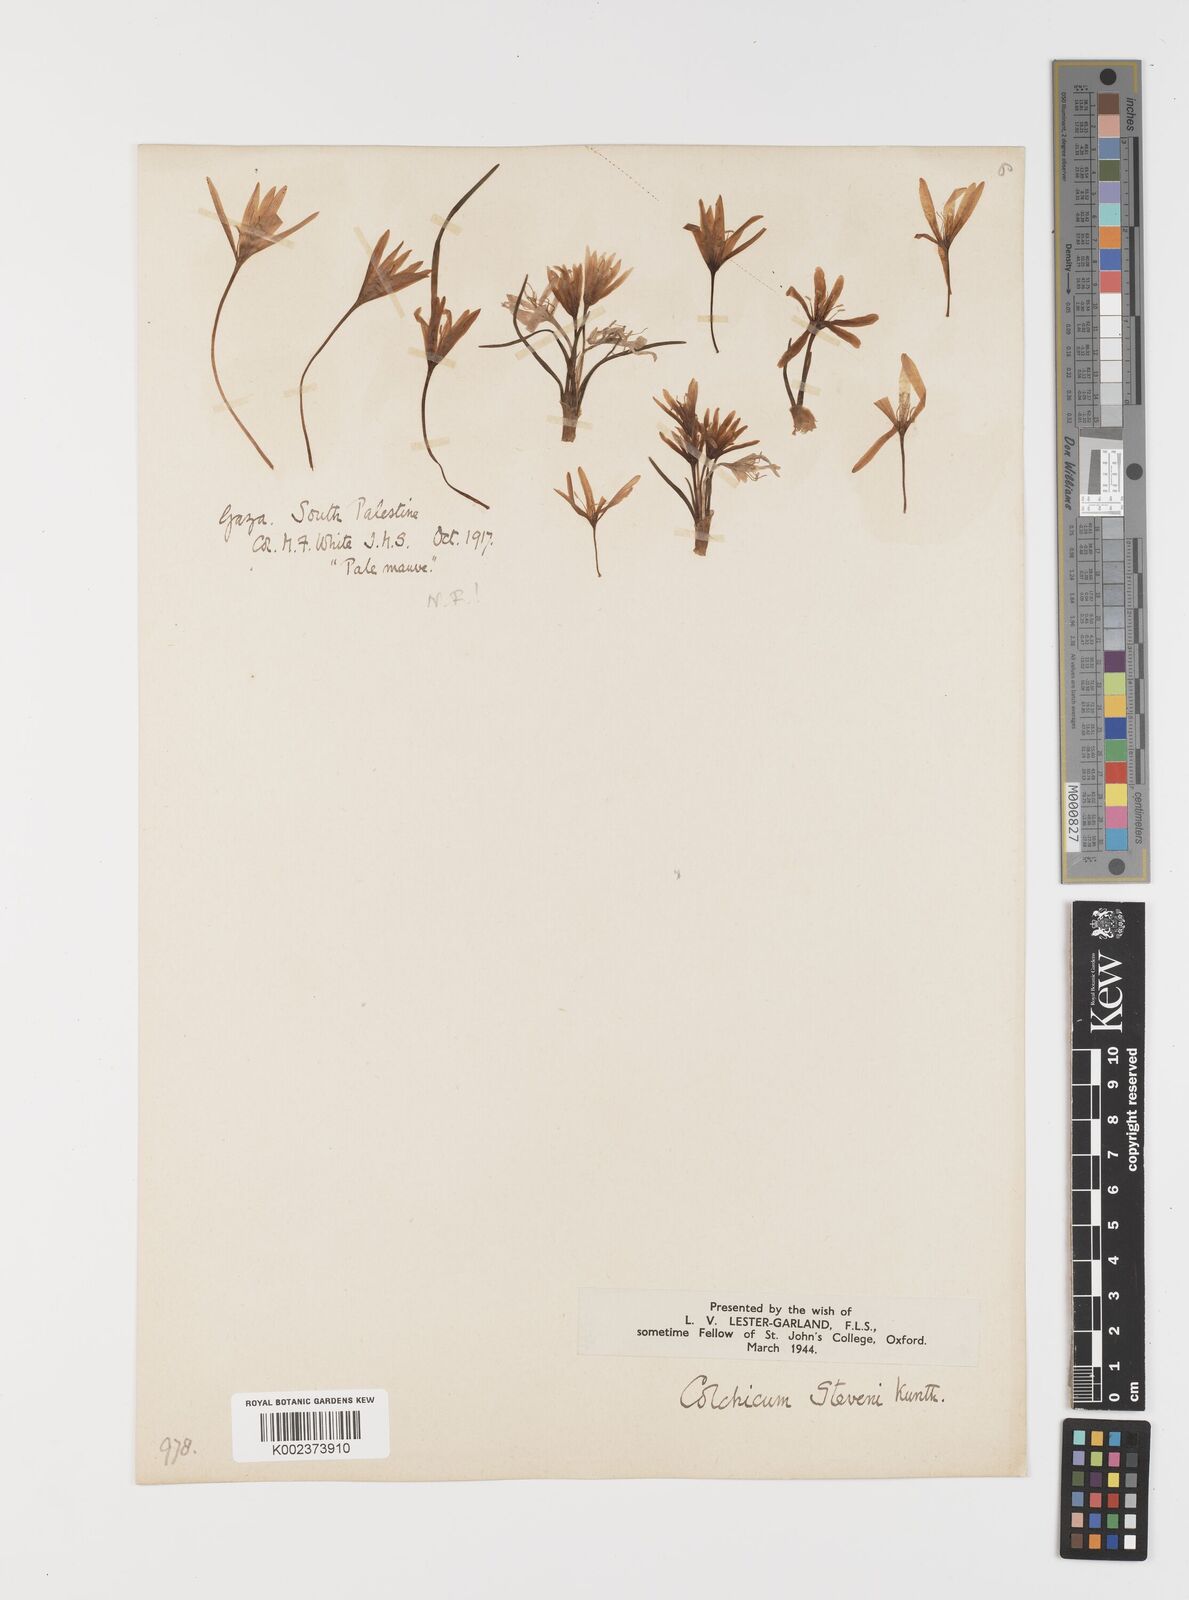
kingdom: Plantae
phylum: Tracheophyta
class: Liliopsida
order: Liliales
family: Colchicaceae
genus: Colchicum
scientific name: Colchicum stevenii
